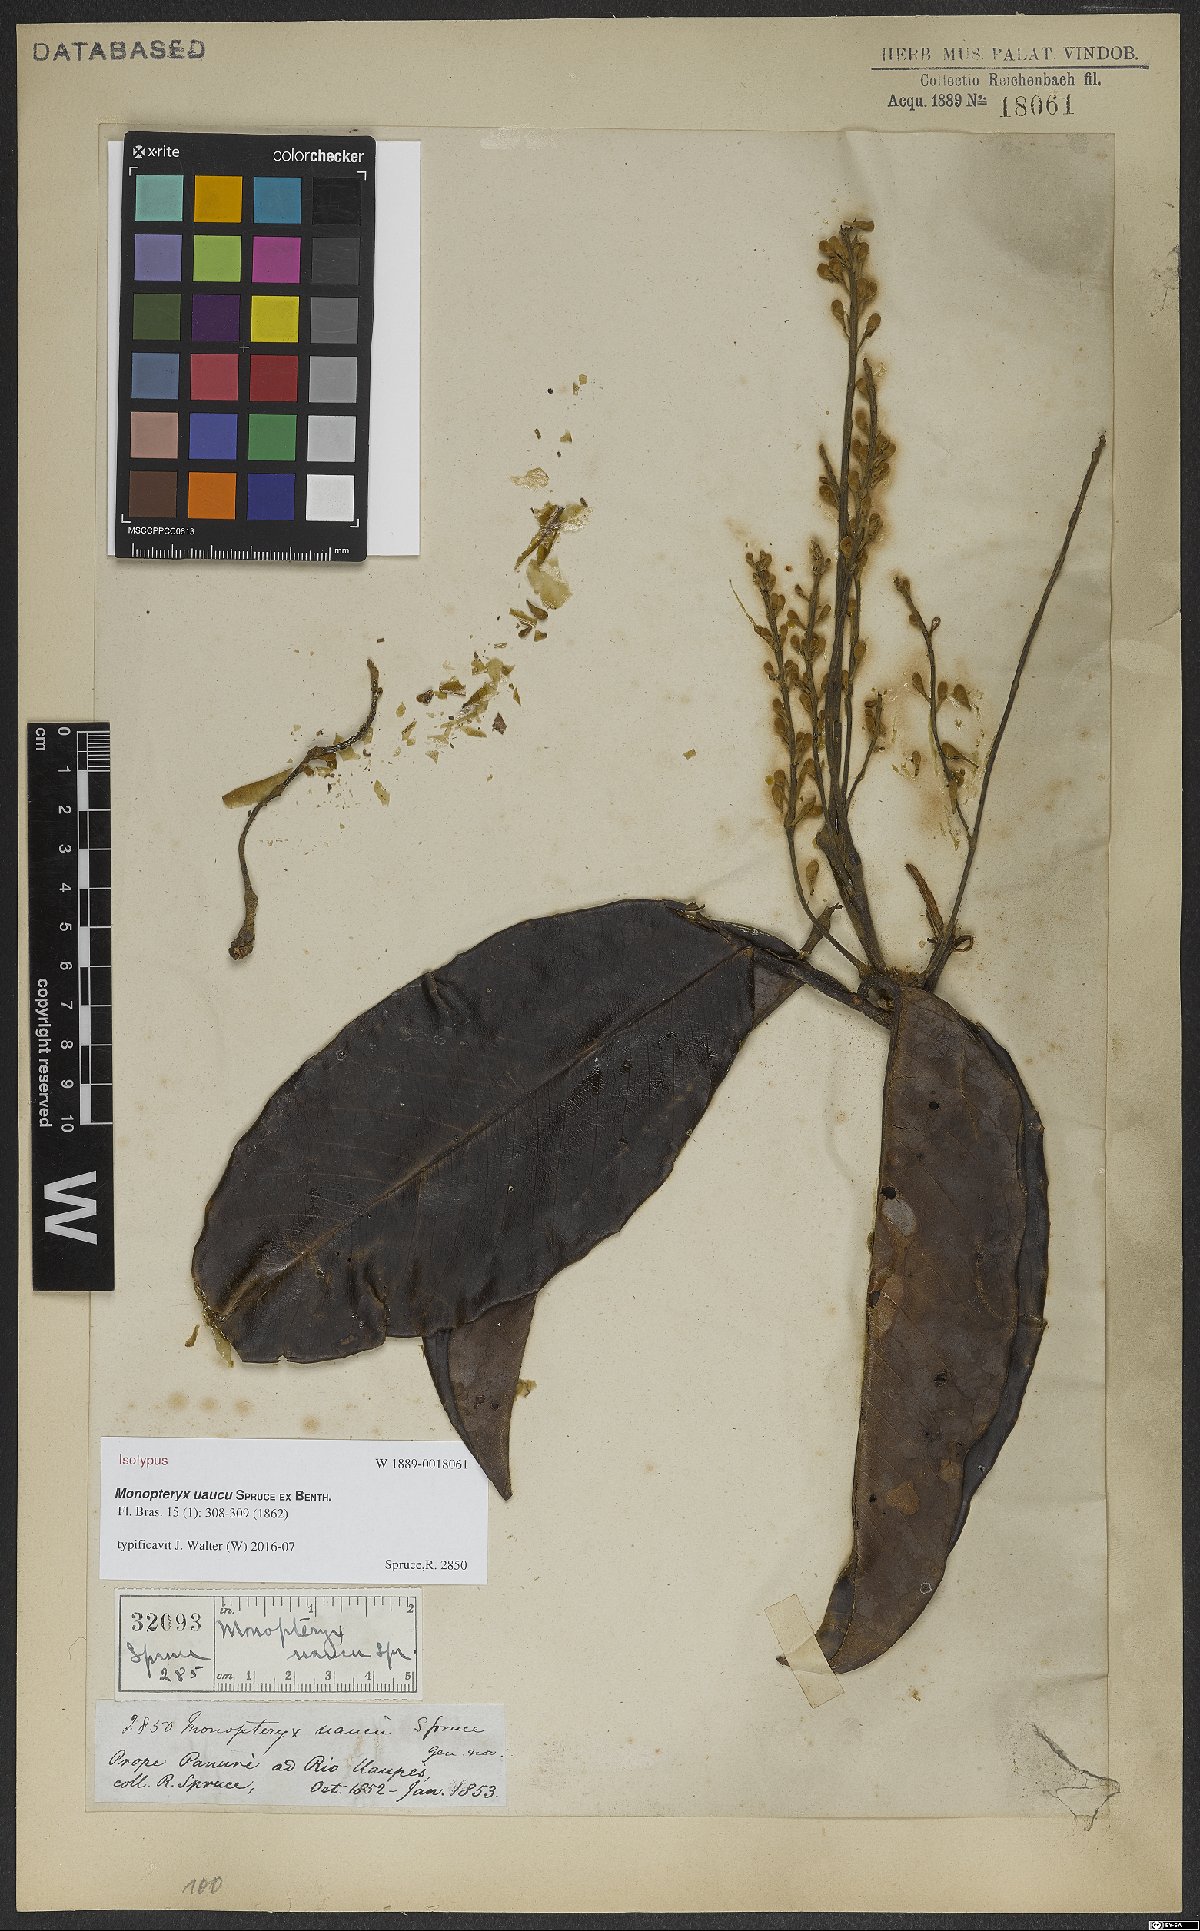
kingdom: Plantae
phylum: Tracheophyta
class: Magnoliopsida
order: Fabales
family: Fabaceae
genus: Monopteryx
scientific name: Monopteryx uaucu
